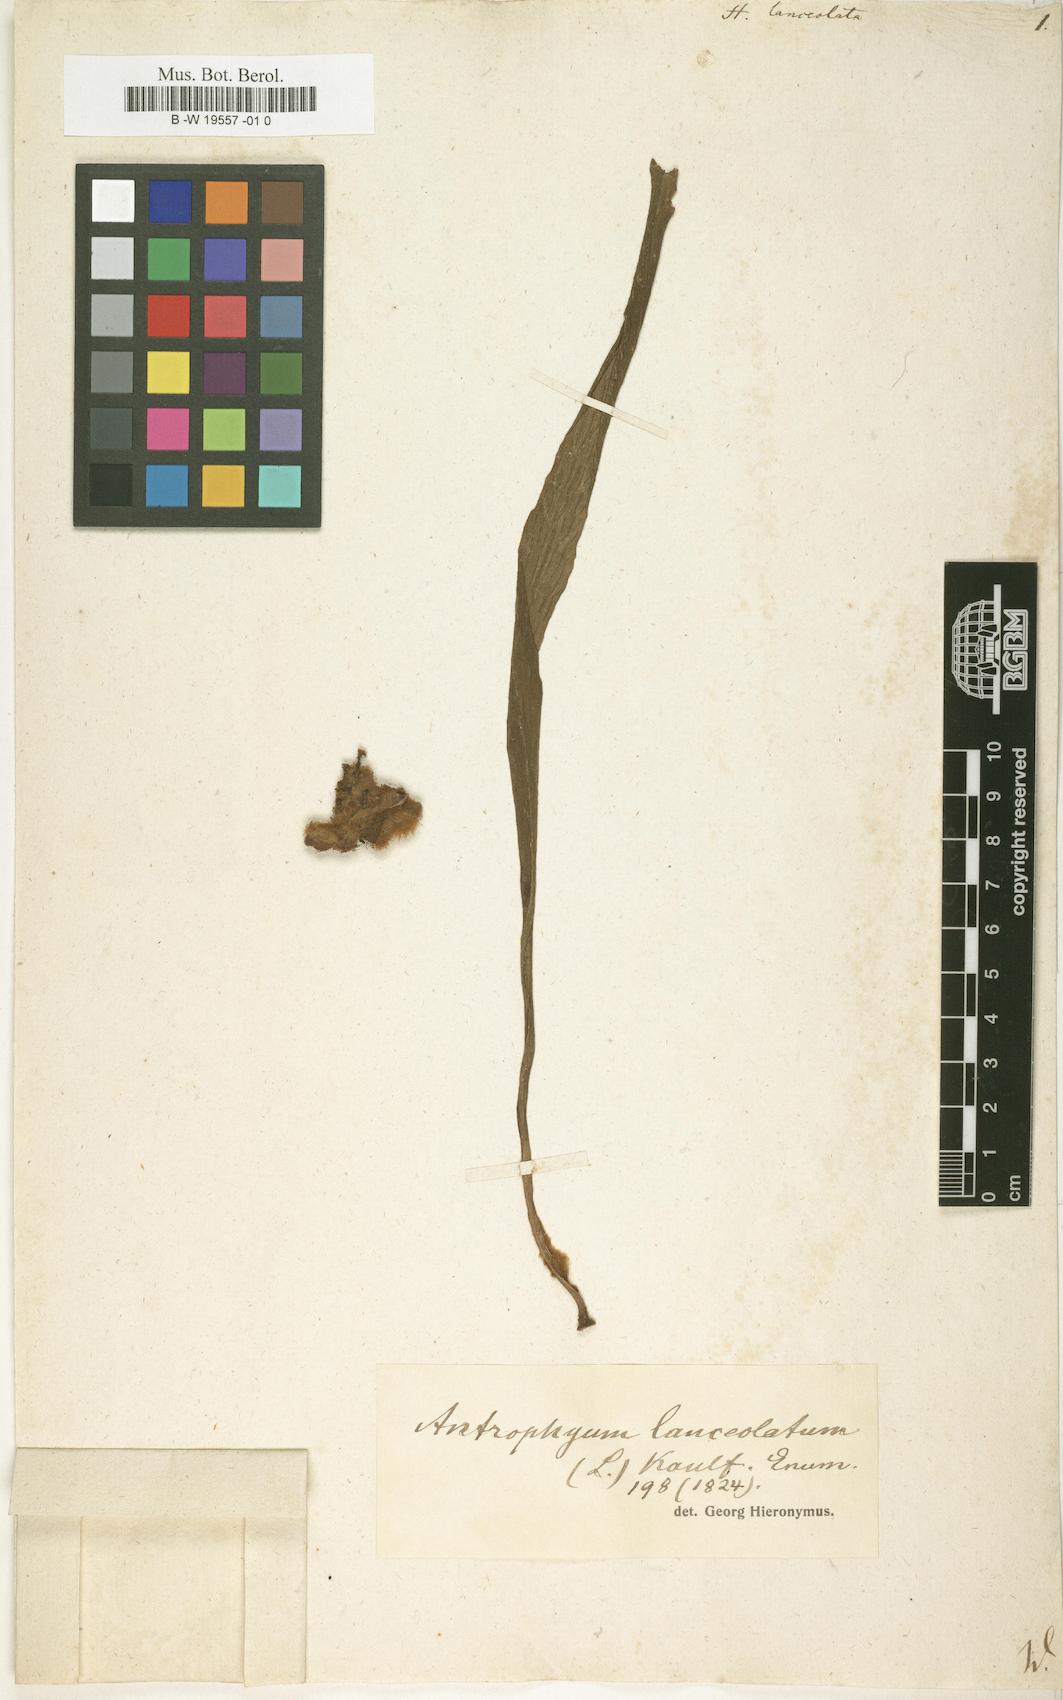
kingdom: Plantae
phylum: Tracheophyta
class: Polypodiopsida
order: Polypodiales
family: Pteridaceae
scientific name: Pteridaceae
